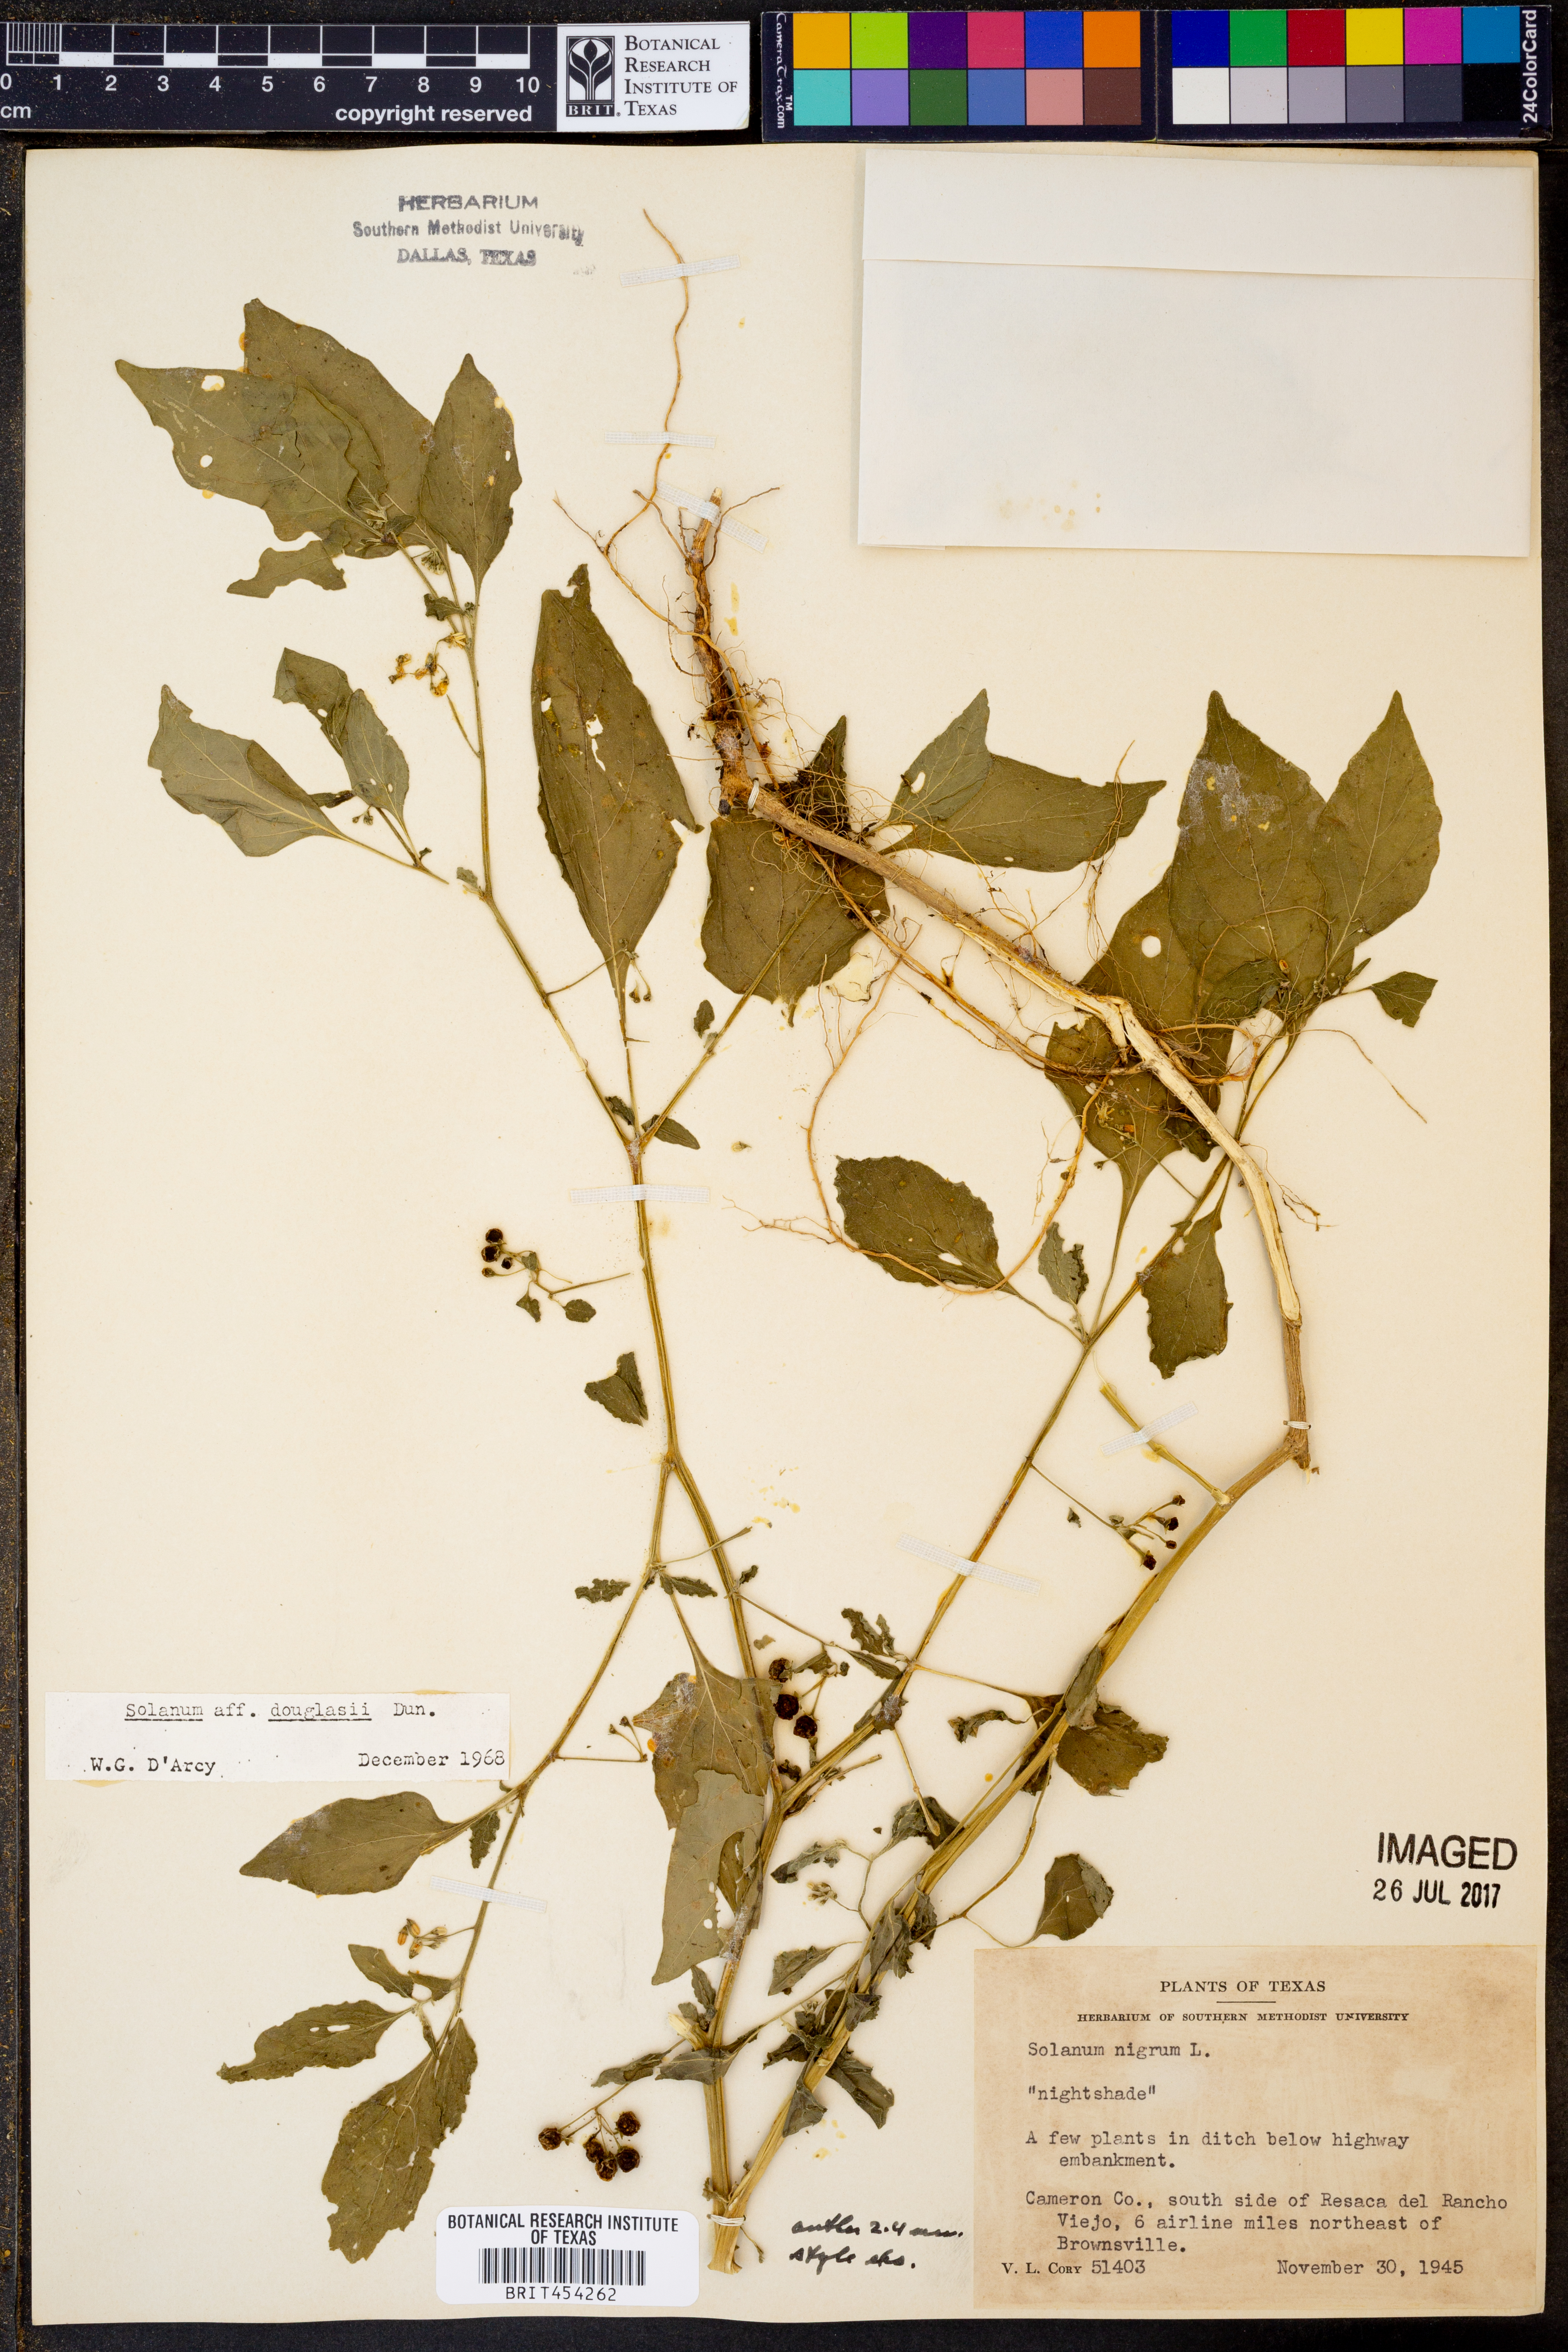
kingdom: Plantae
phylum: Tracheophyta
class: Magnoliopsida
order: Solanales
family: Solanaceae
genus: Solanum
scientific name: Solanum douglasii
